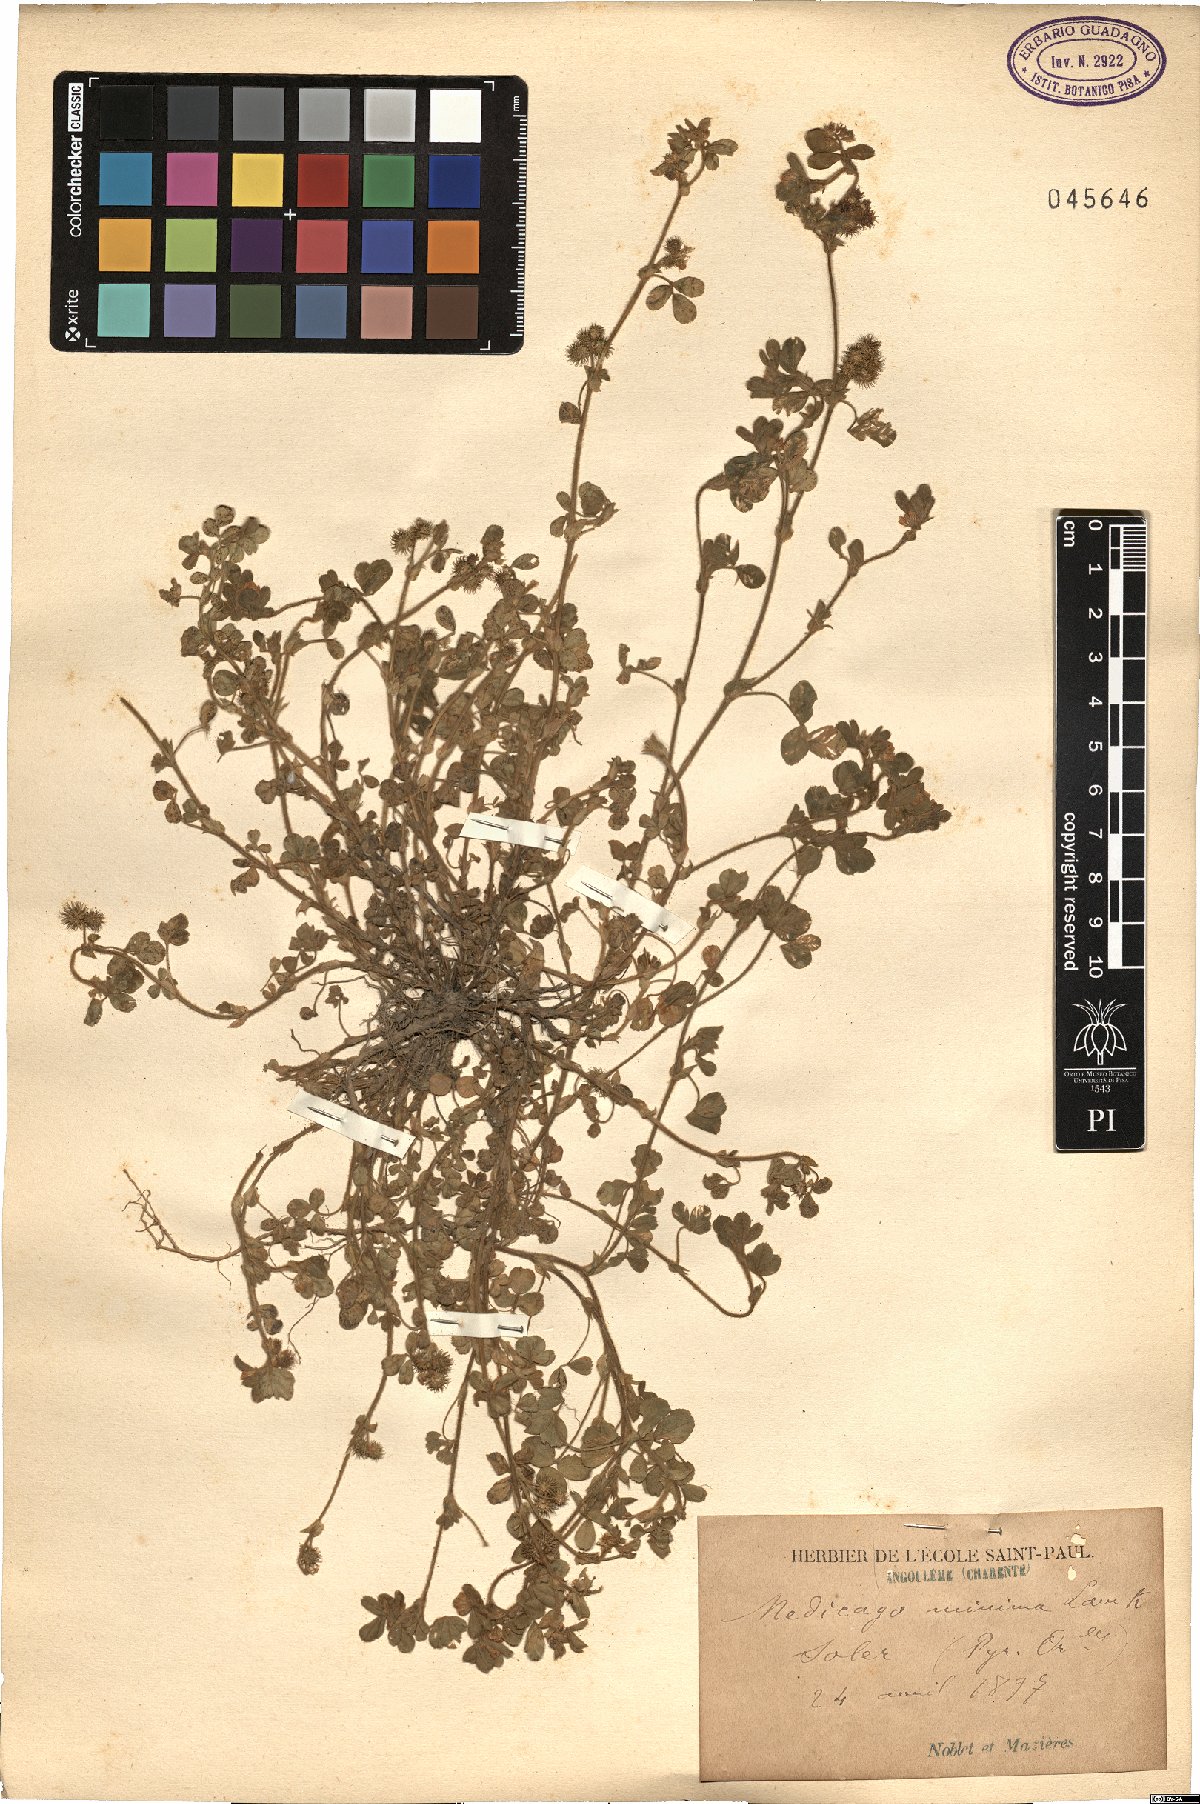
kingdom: Plantae
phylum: Tracheophyta
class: Magnoliopsida
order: Fabales
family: Fabaceae
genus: Medicago
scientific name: Medicago minima
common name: Little bur-clover
